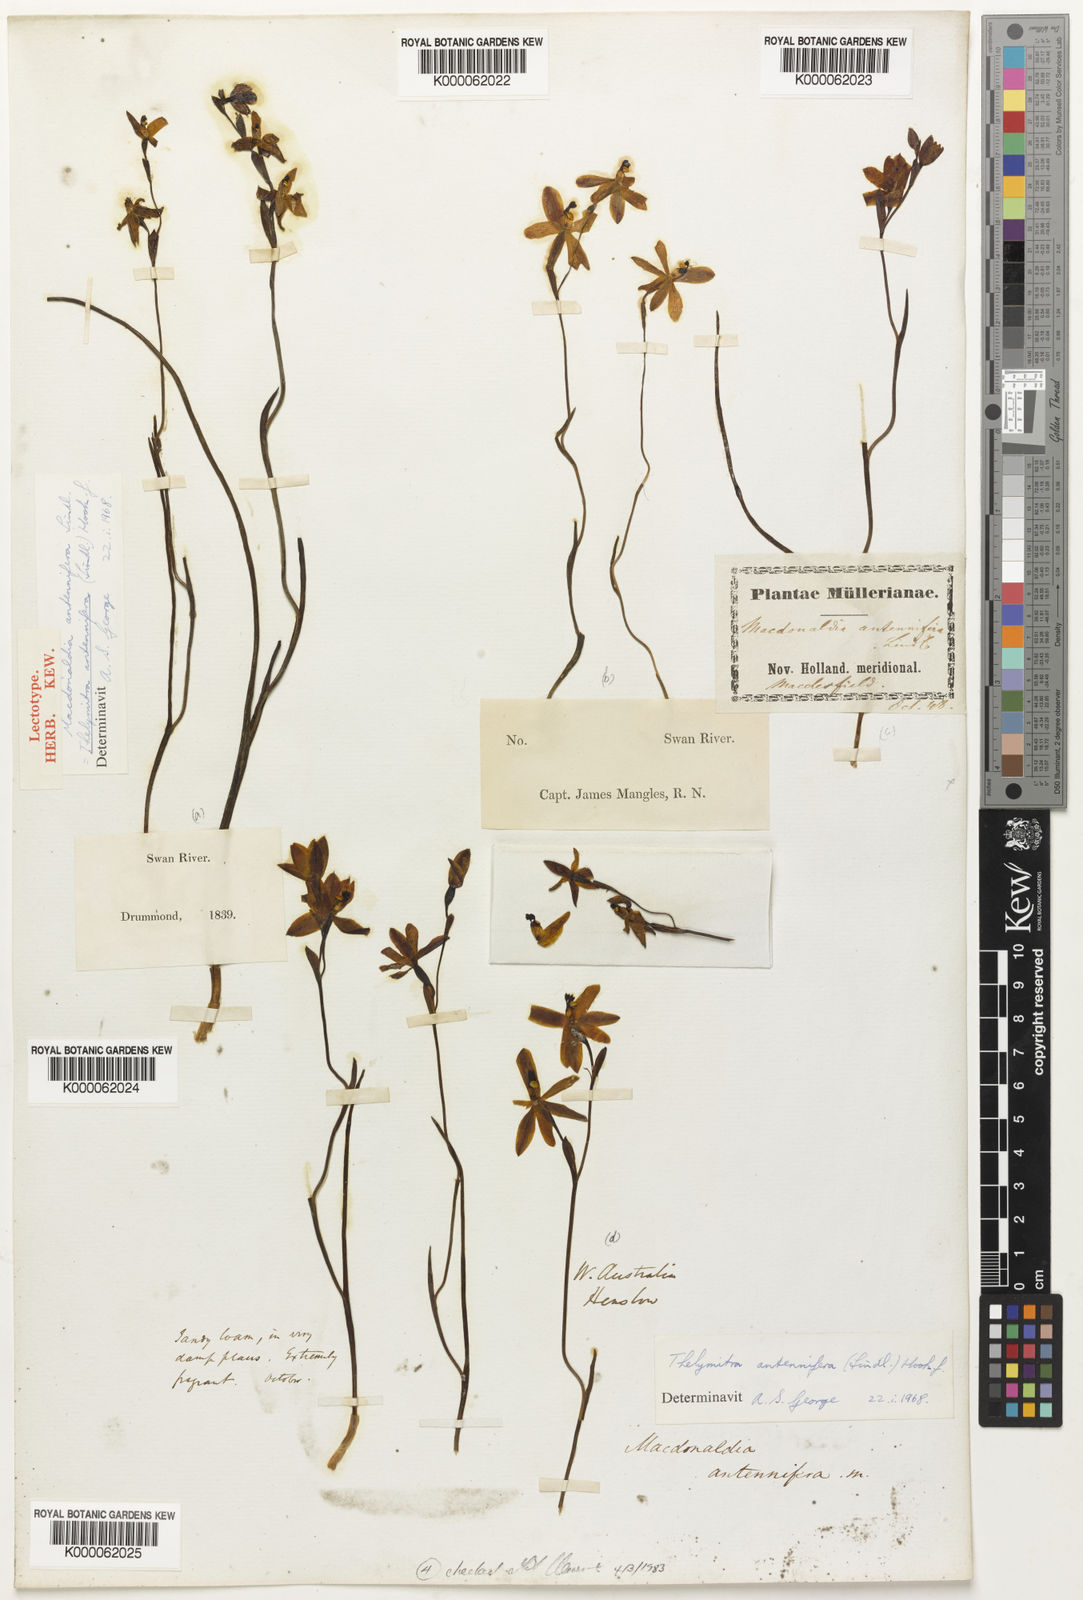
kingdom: Plantae
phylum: Tracheophyta
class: Liliopsida
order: Asparagales
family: Orchidaceae
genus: Thelymitra
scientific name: Thelymitra antennifera
